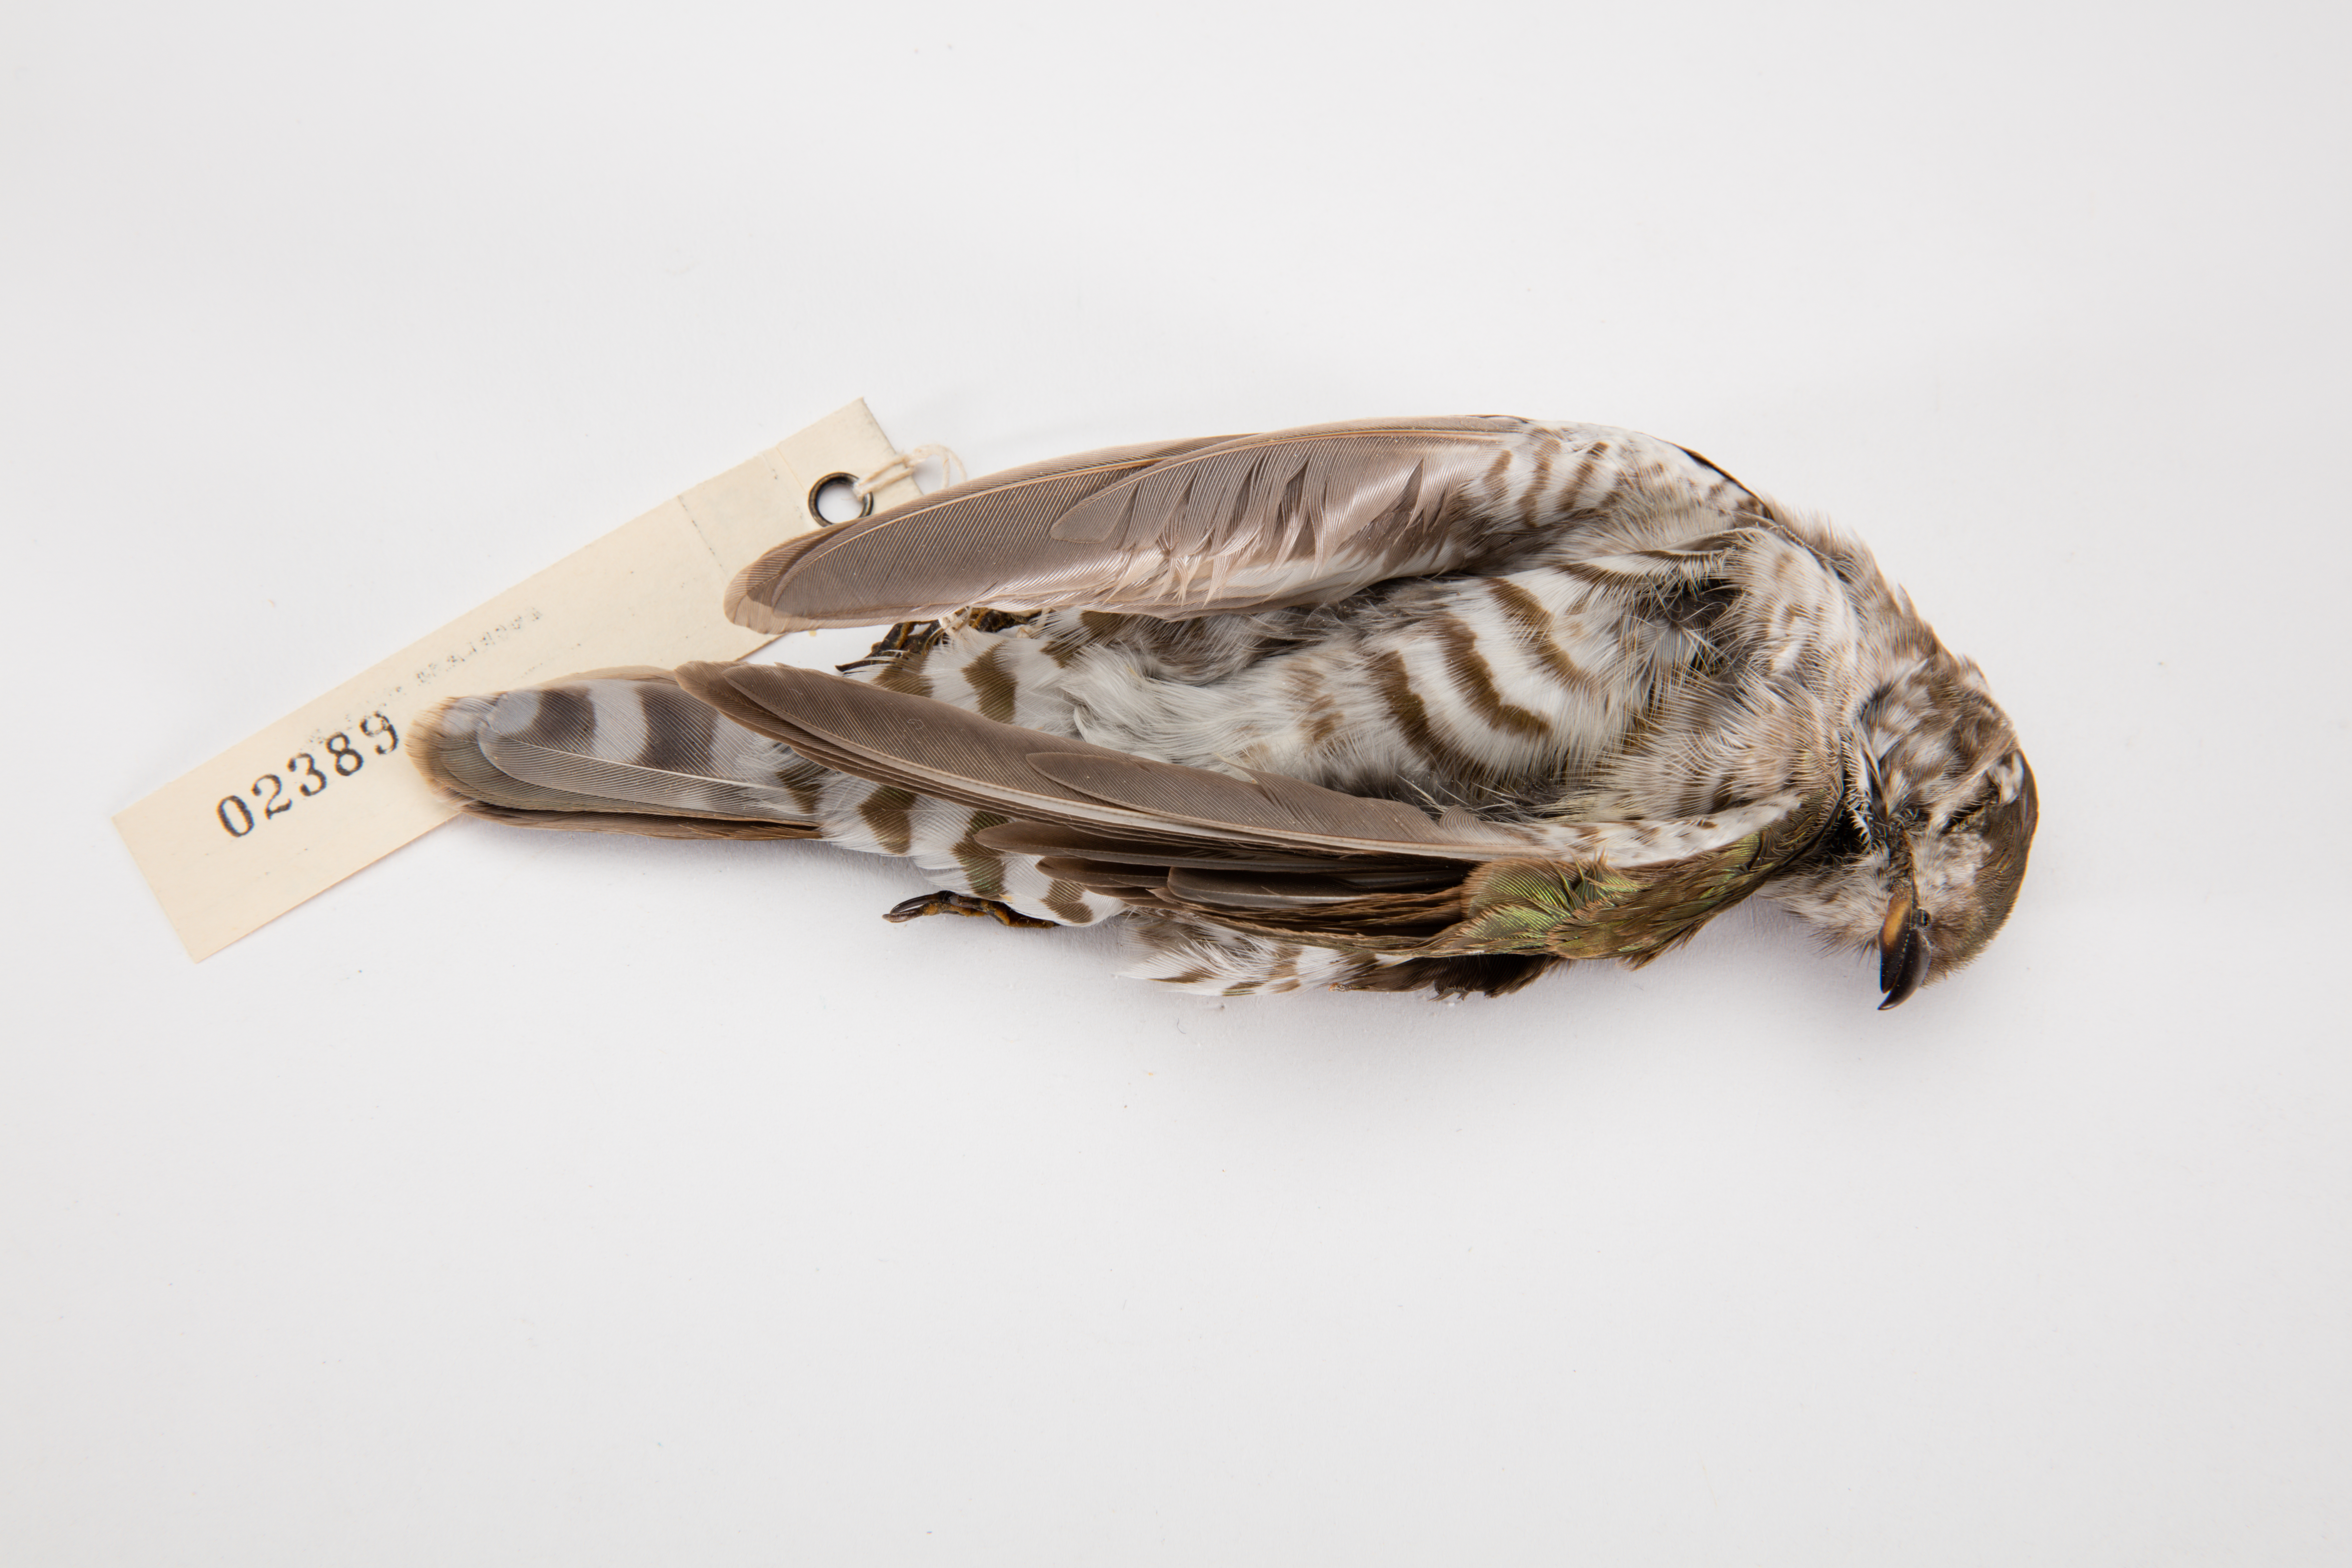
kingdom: Animalia
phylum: Chordata
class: Aves
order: Cuculiformes
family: Cuculidae
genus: Chrysococcyx
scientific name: Chrysococcyx lucidus
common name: Shining bronze cuckoo
